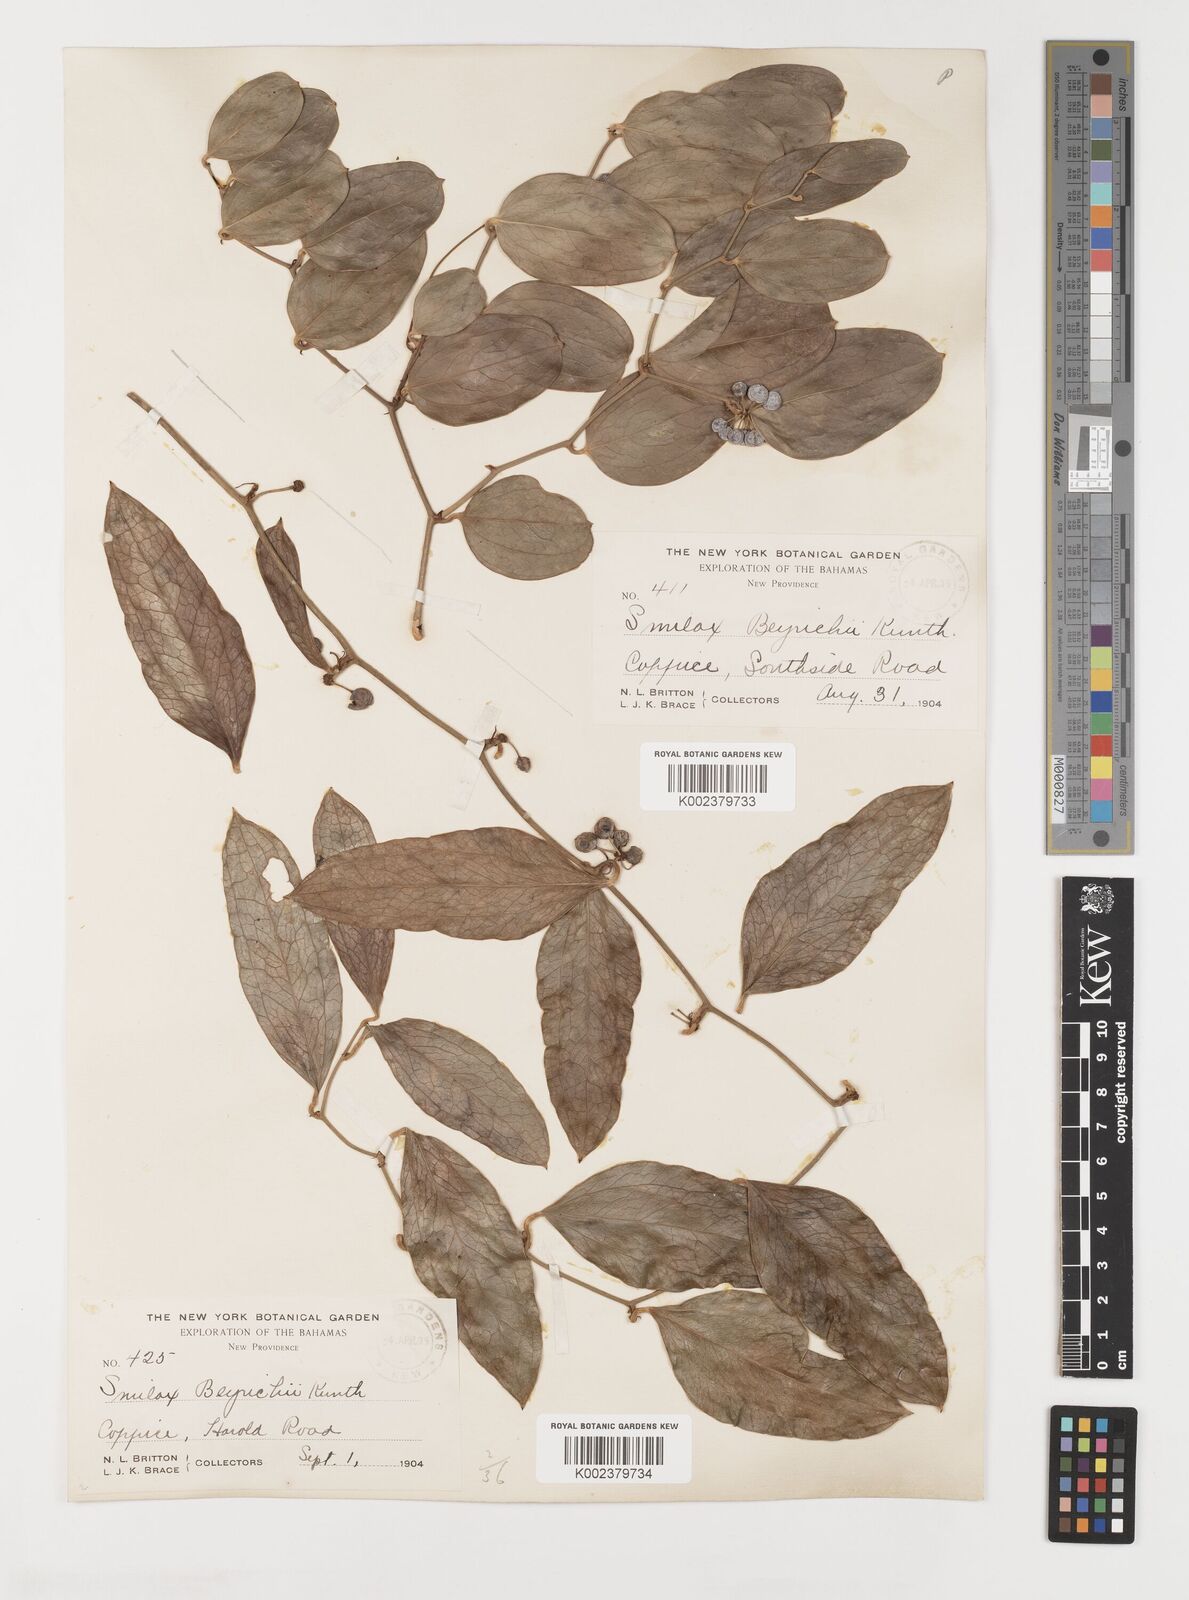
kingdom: Plantae
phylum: Tracheophyta
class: Liliopsida
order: Liliales
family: Smilacaceae
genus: Smilax
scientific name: Smilax auriculata
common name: Wild bamboo
